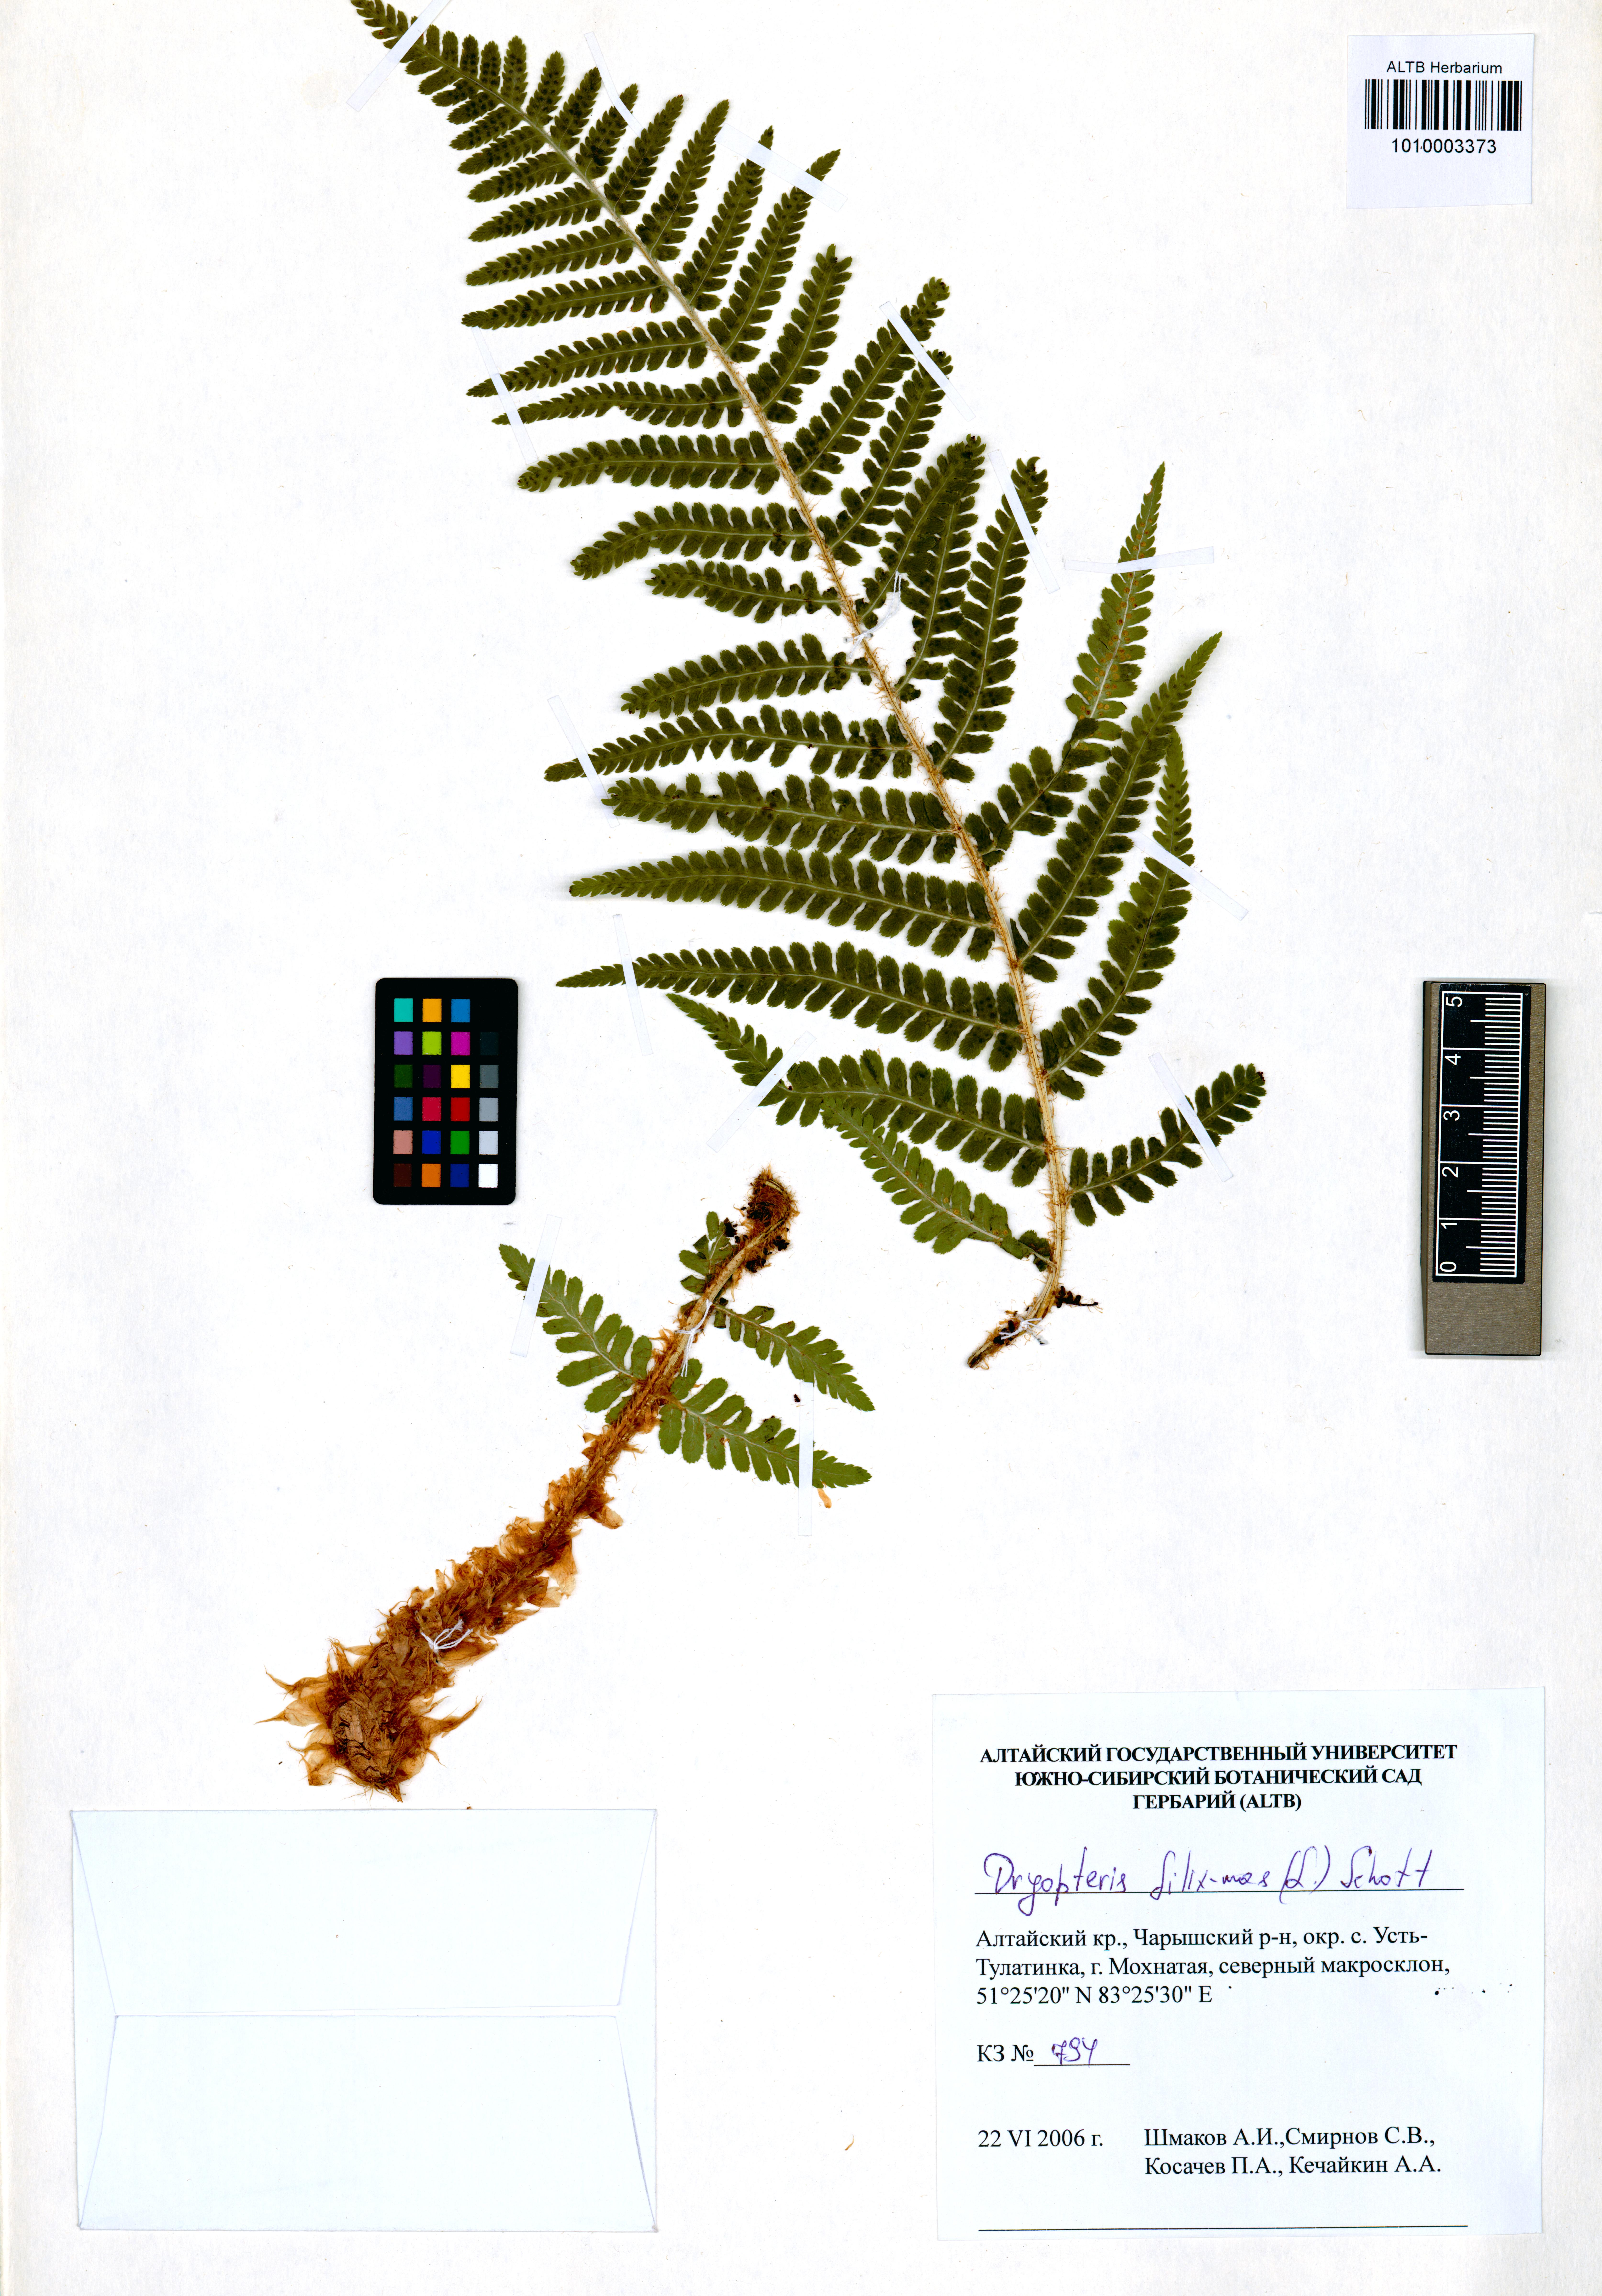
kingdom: Plantae
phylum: Tracheophyta
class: Polypodiopsida
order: Polypodiales
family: Dryopteridaceae
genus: Dryopteris
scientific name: Dryopteris filix-mas
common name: Male fern
